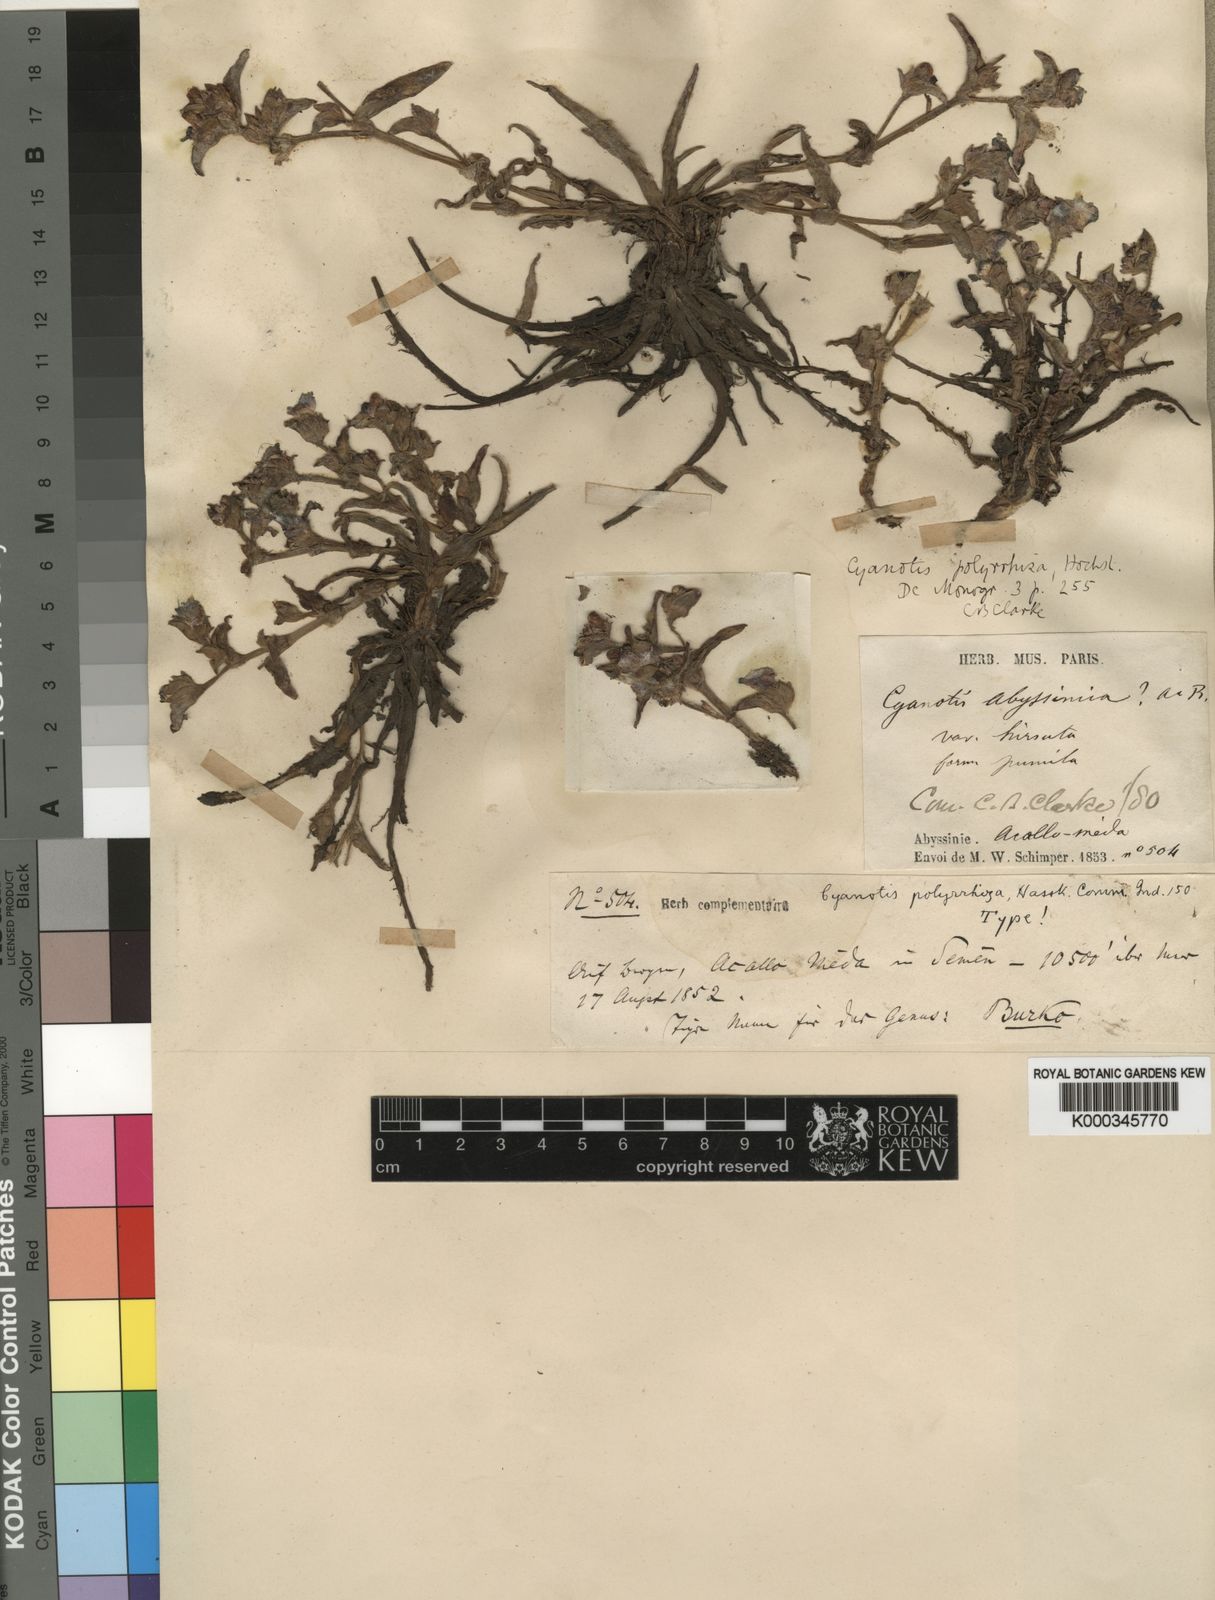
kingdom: Plantae
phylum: Tracheophyta
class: Liliopsida
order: Commelinales
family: Commelinaceae
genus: Cyanotis
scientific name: Cyanotis polyrrhiza
